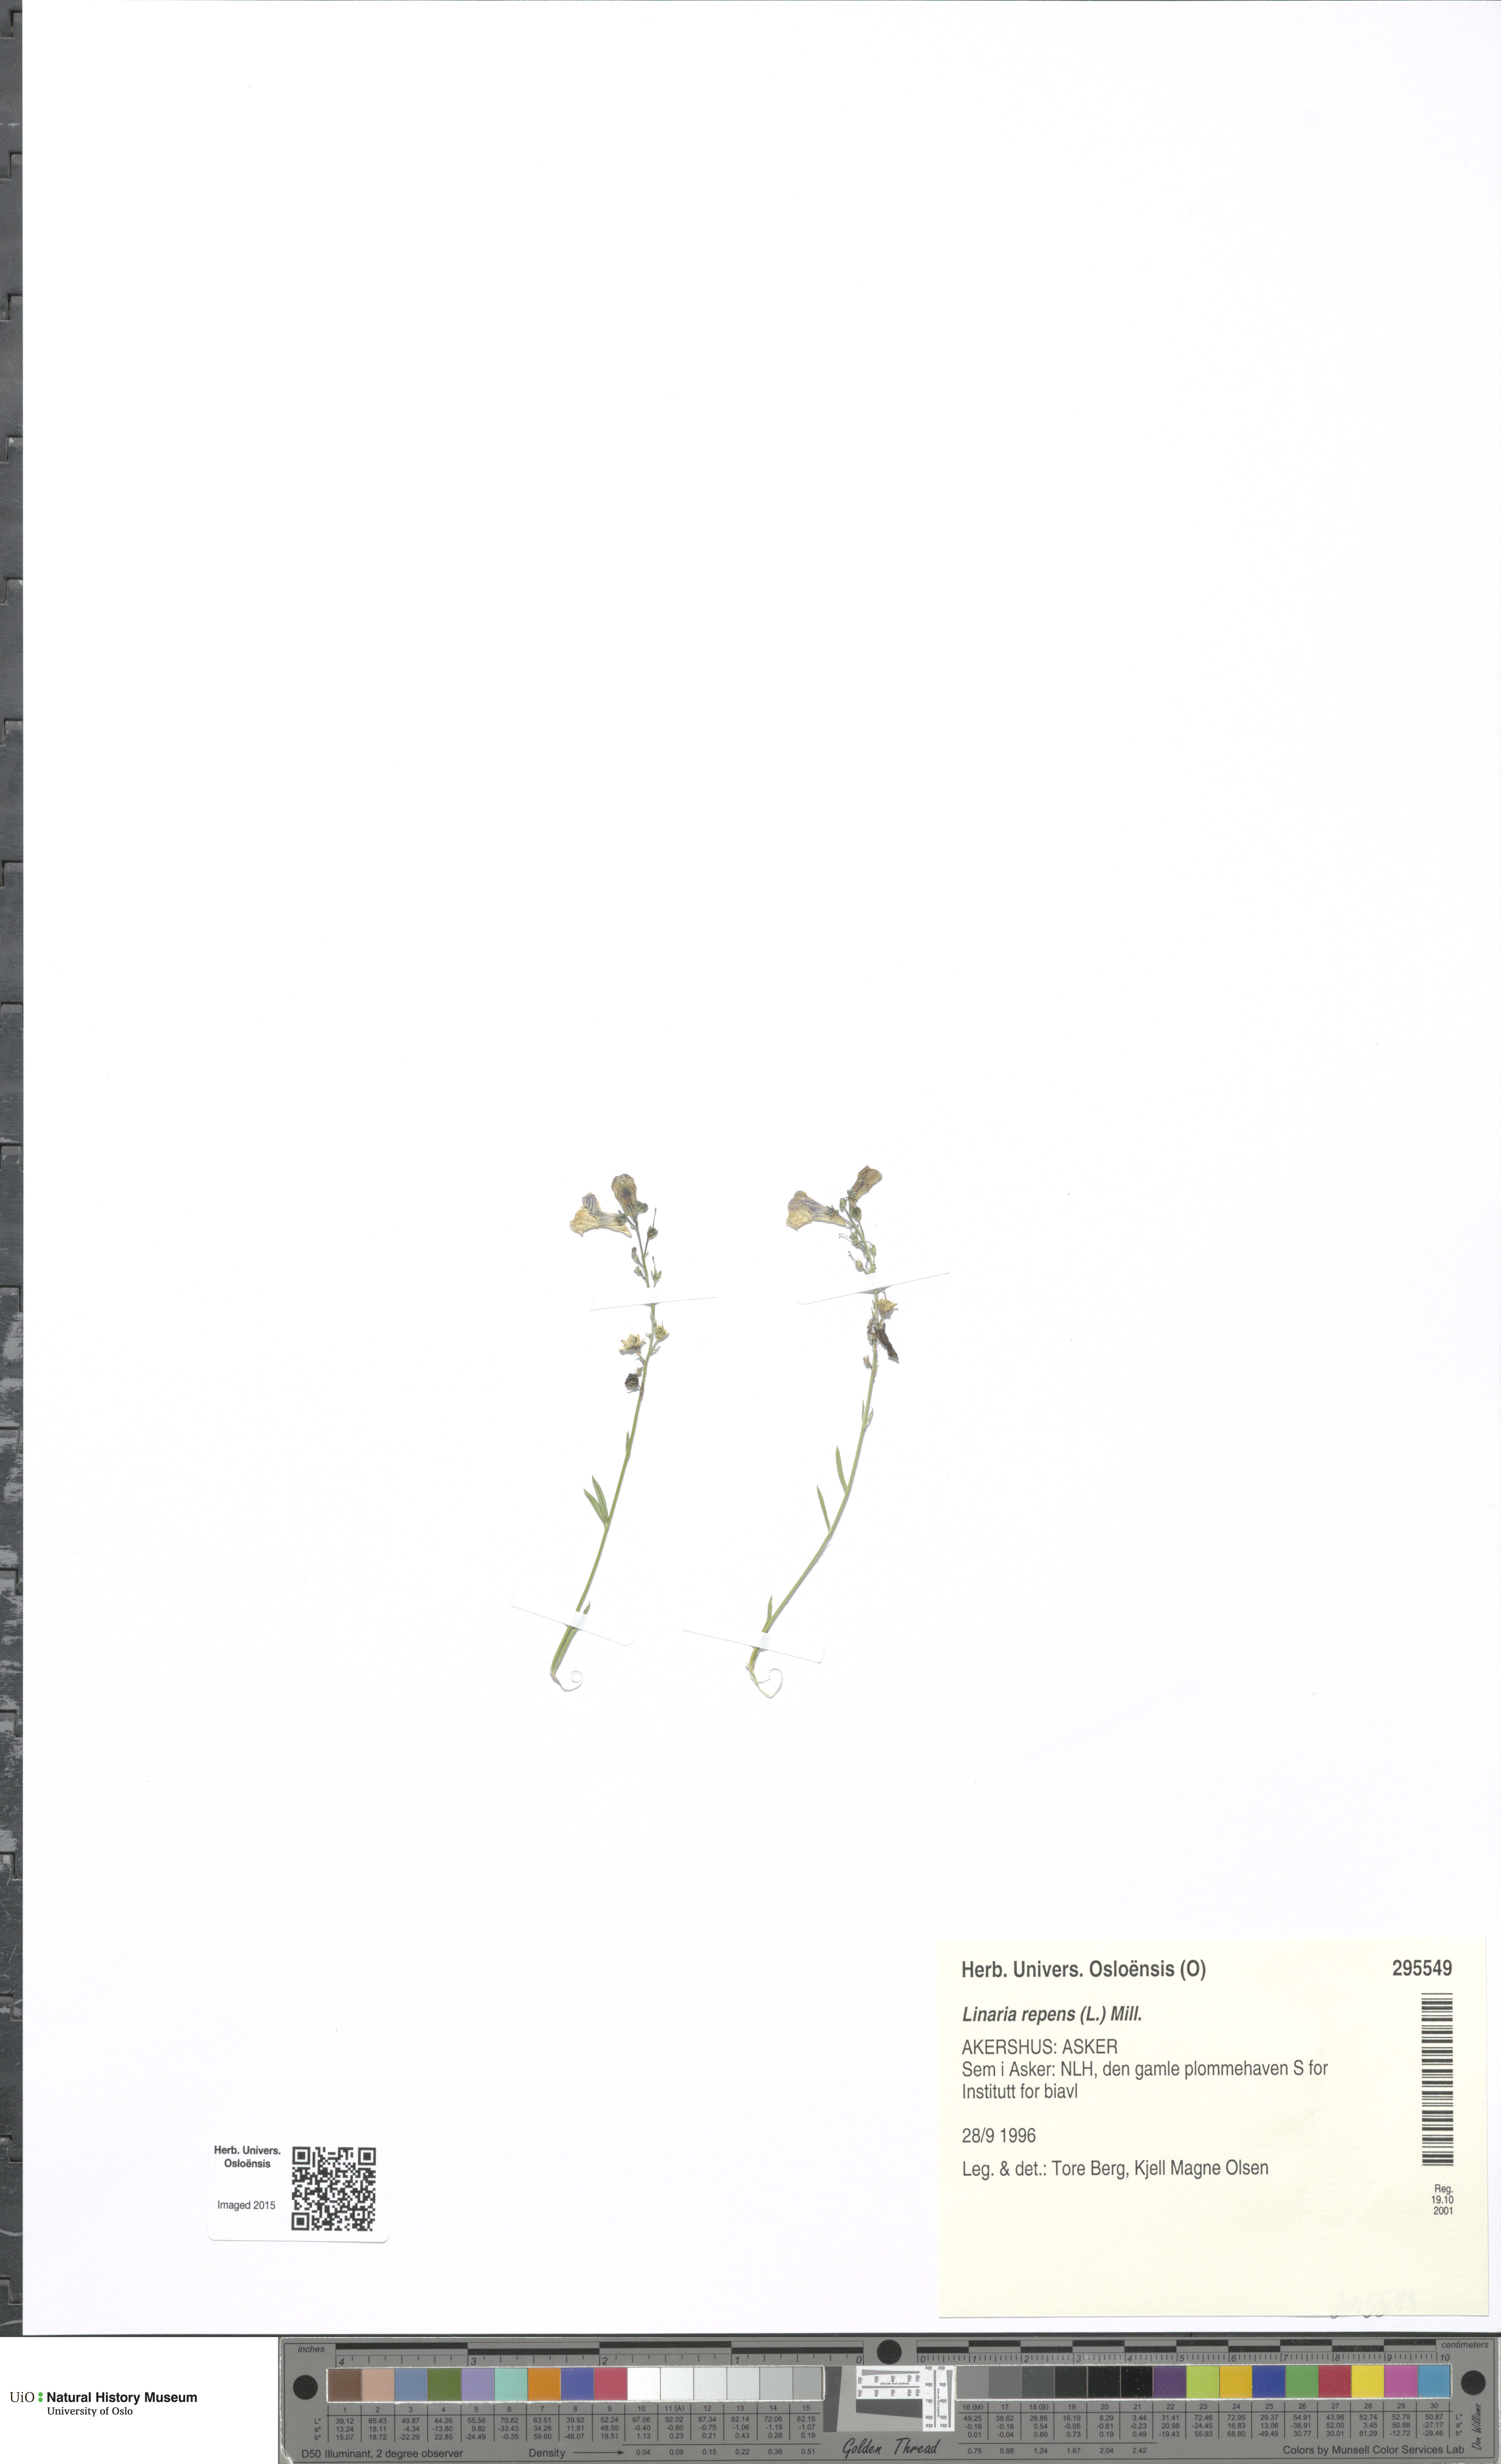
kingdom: Plantae
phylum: Tracheophyta
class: Magnoliopsida
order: Lamiales
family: Plantaginaceae
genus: Linaria
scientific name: Linaria repens
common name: Pale toadflax
